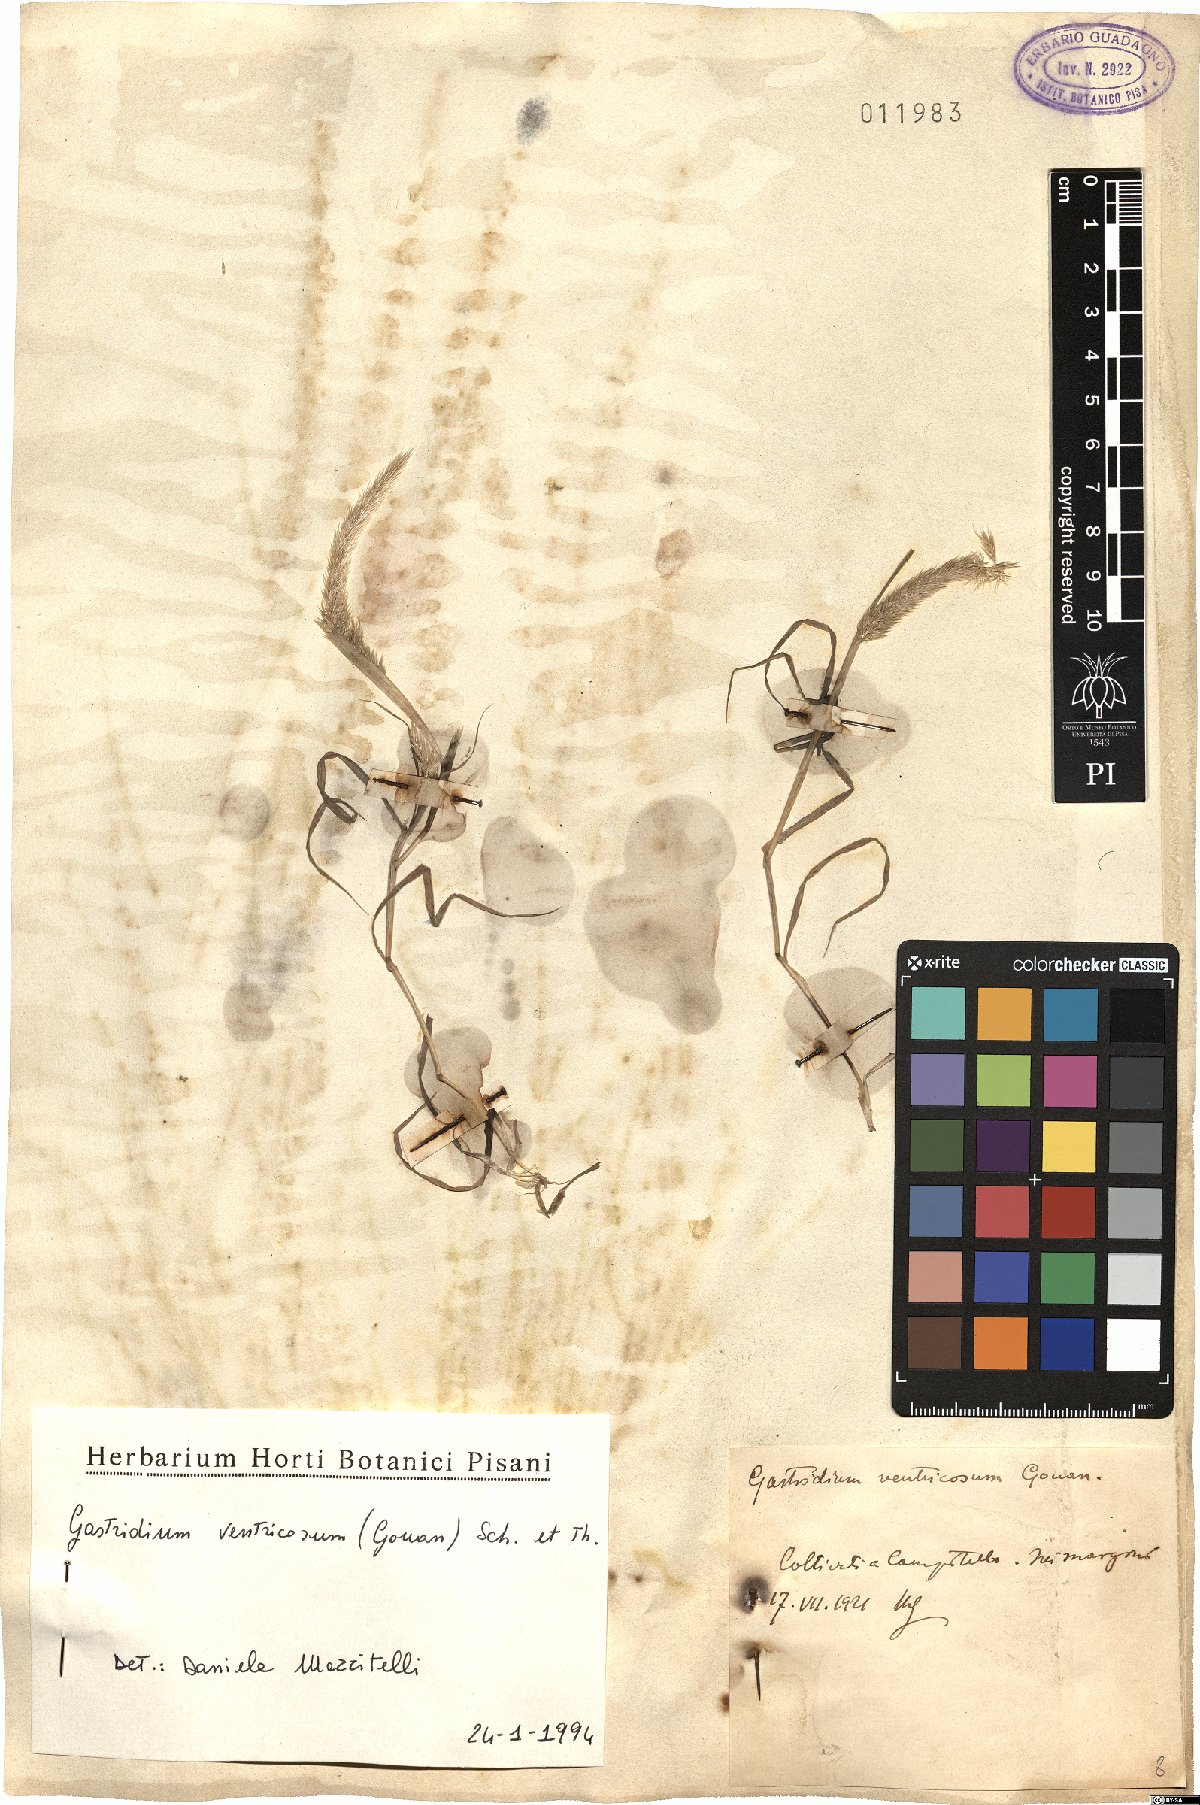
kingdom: Plantae
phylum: Tracheophyta
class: Liliopsida
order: Poales
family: Poaceae
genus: Gastridium
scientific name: Gastridium ventricosum
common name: Nit-grass
